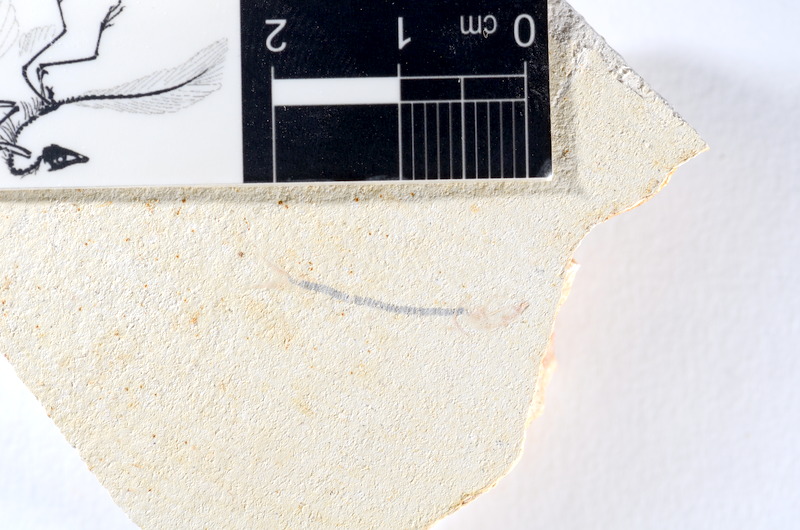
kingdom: Animalia
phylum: Chordata
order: Salmoniformes
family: Orthogonikleithridae
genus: Orthogonikleithrus
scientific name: Orthogonikleithrus hoelli
